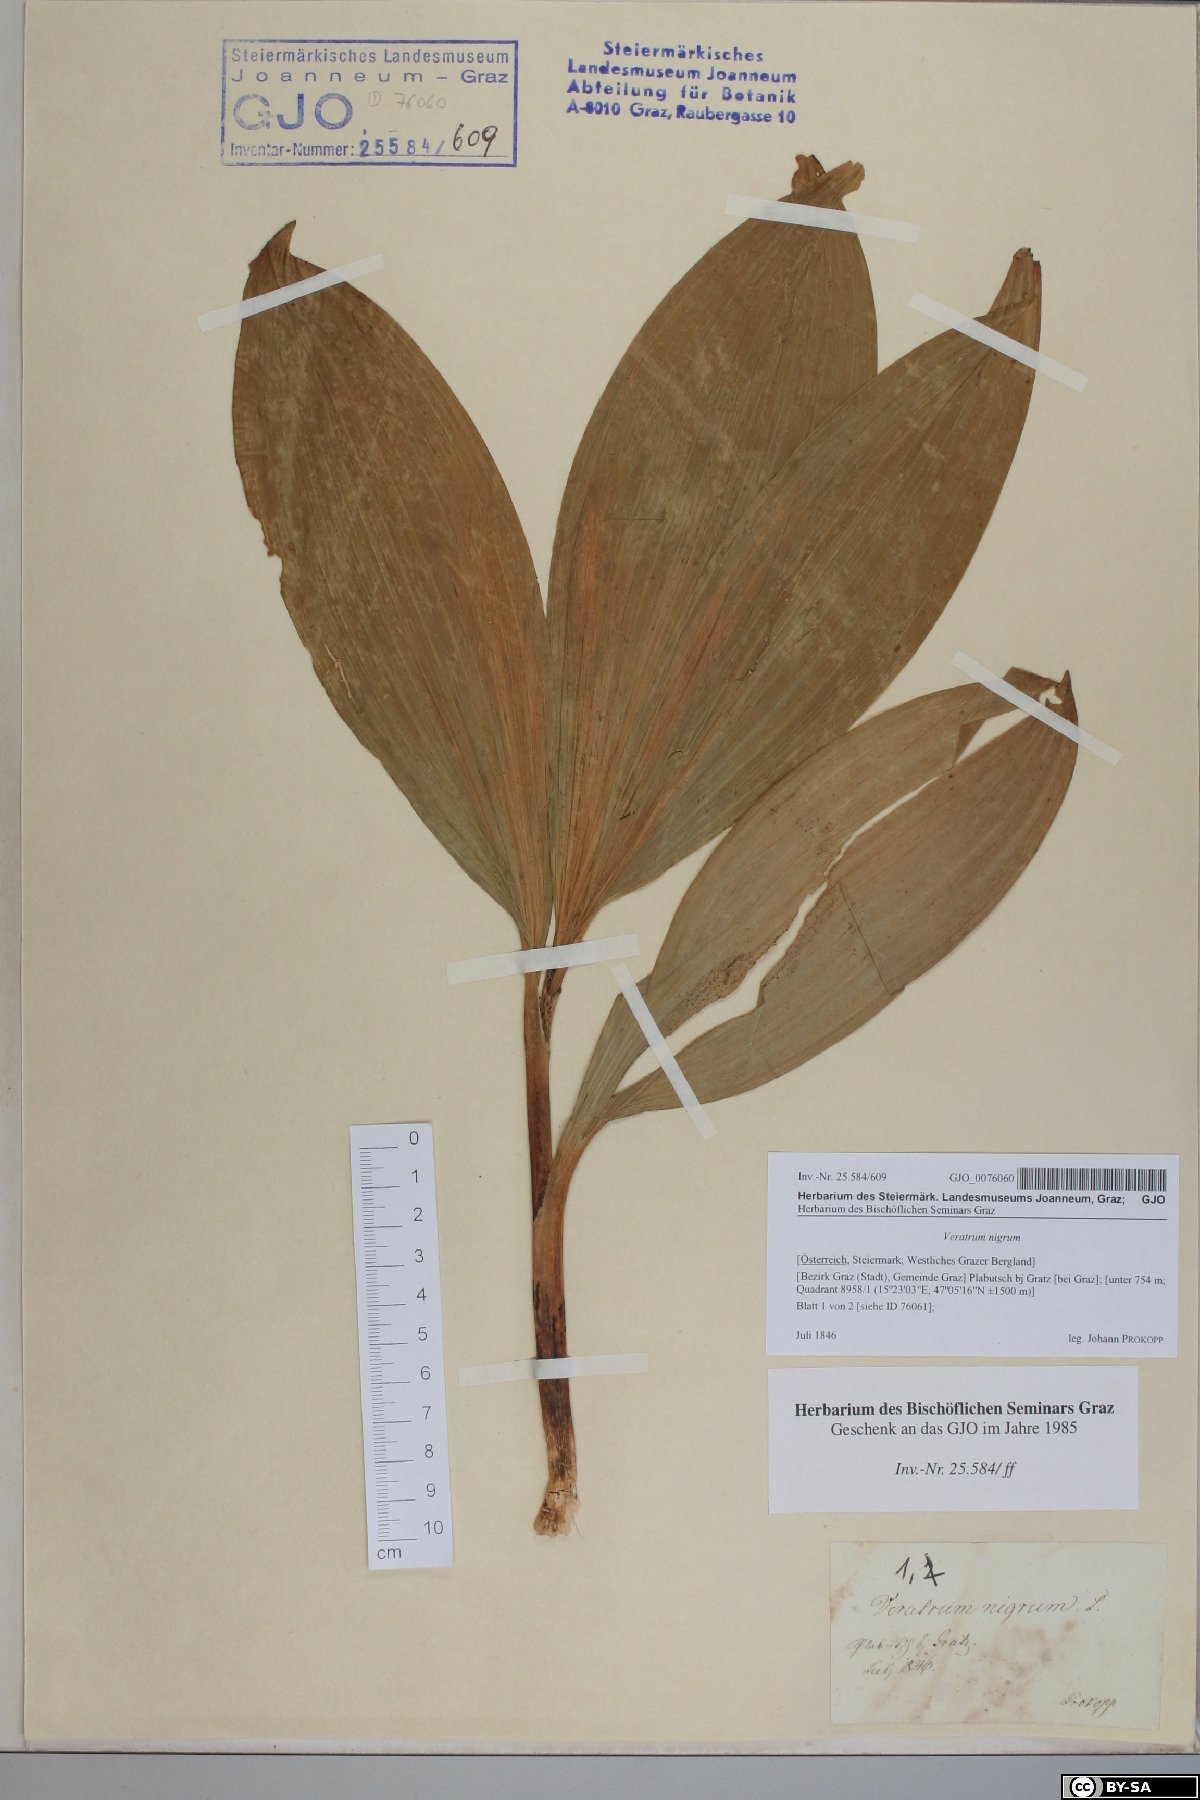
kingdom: Plantae
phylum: Tracheophyta
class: Liliopsida
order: Liliales
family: Melanthiaceae
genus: Veratrum
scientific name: Veratrum nigrum
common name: Black veratrum
